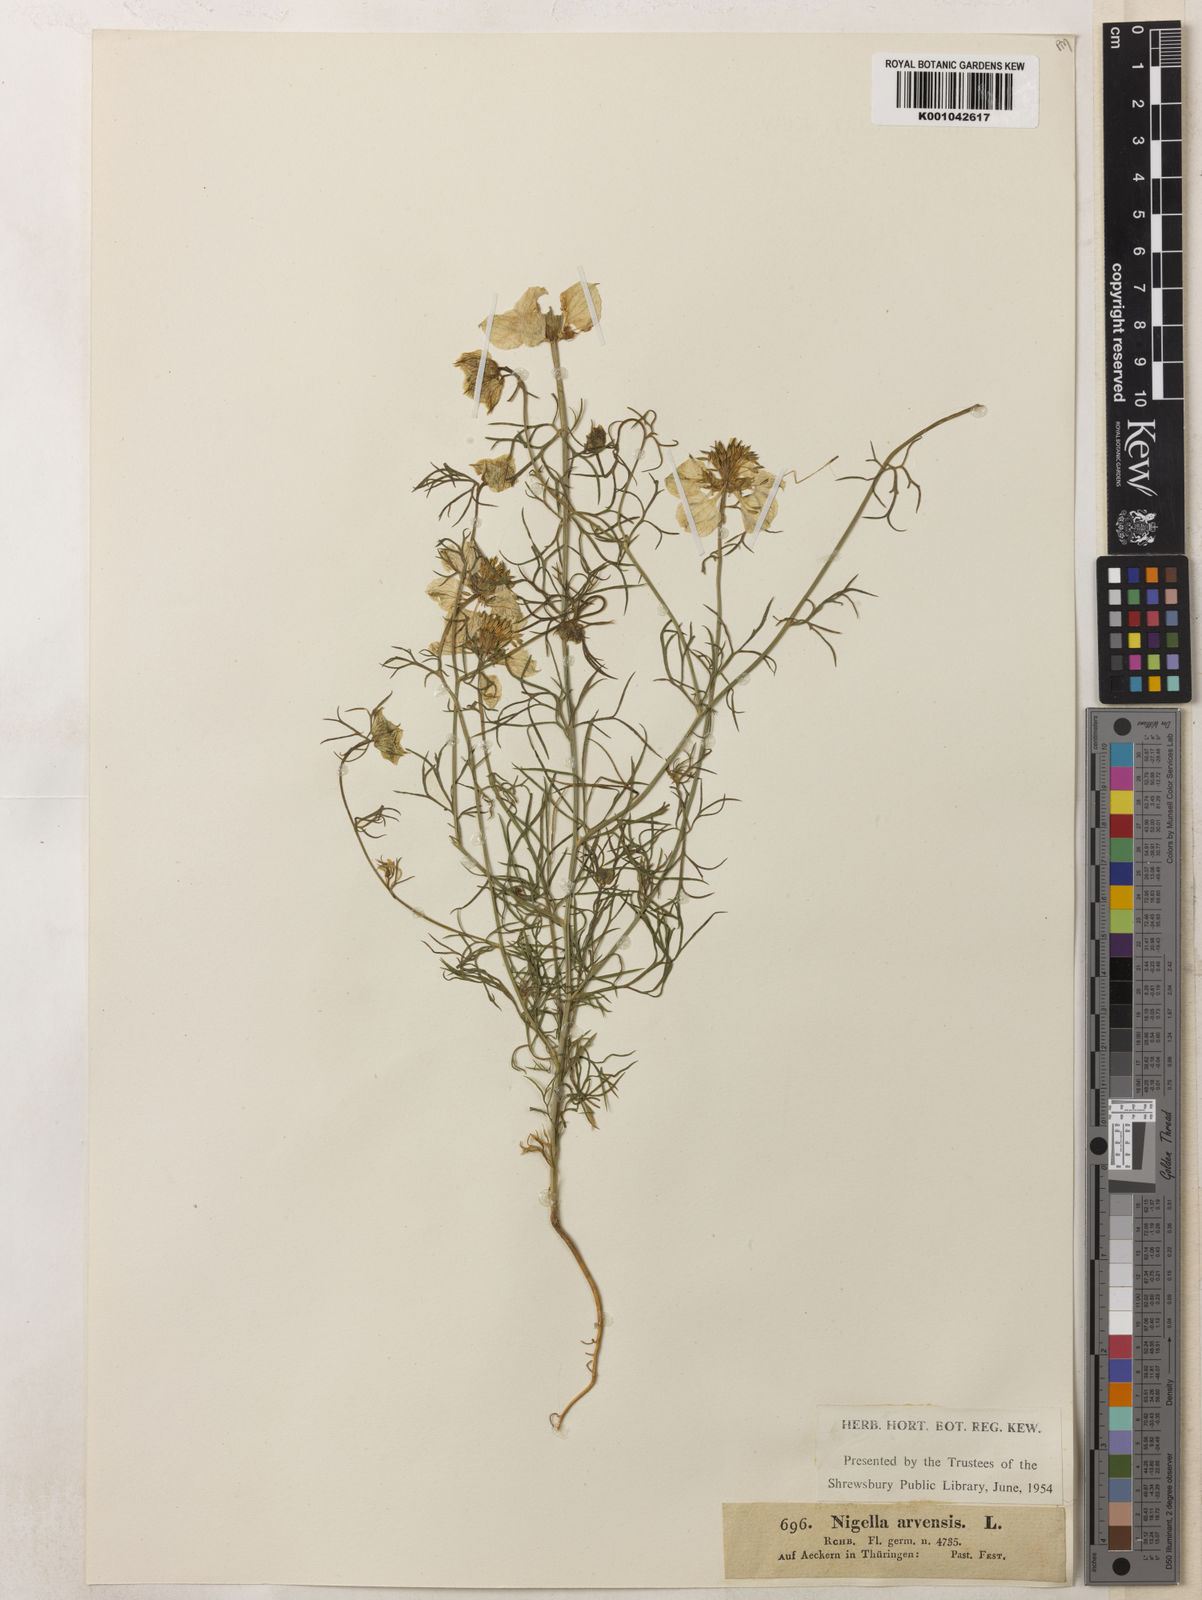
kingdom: Plantae
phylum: Tracheophyta
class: Magnoliopsida
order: Ranunculales
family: Ranunculaceae
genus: Nigella
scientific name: Nigella arvensis
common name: Wild fennel-flower
